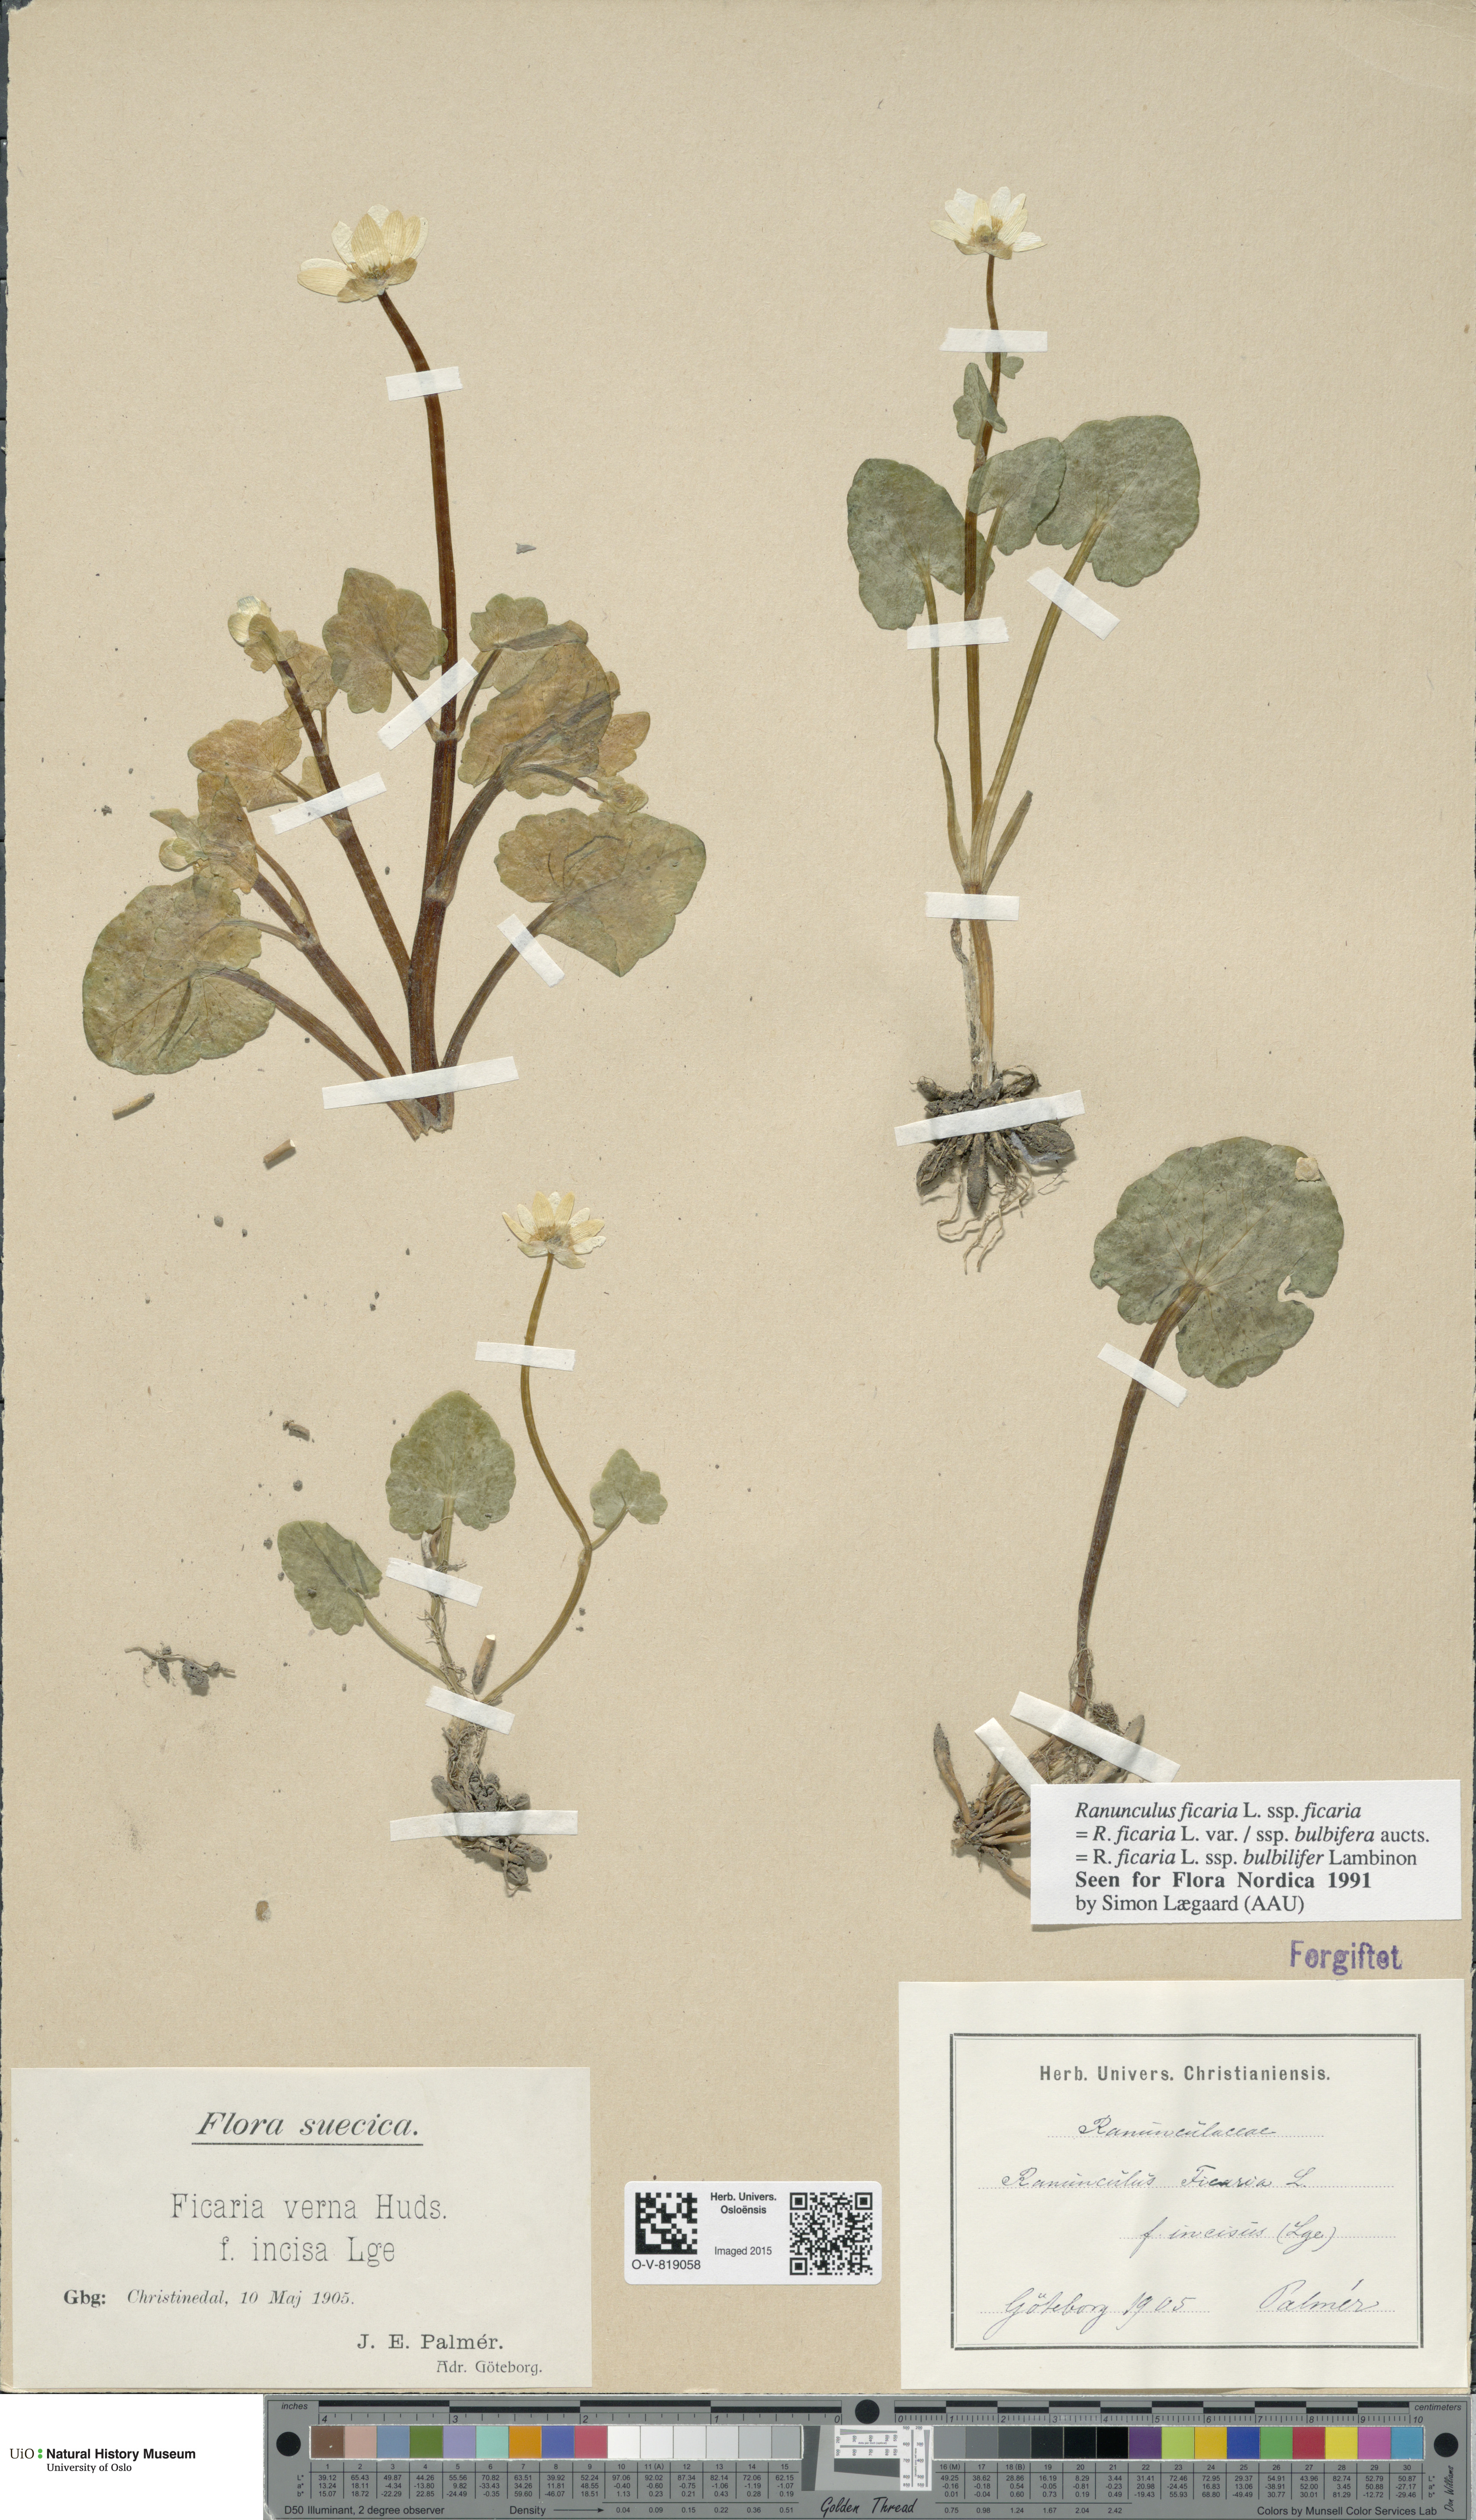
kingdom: Plantae
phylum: Tracheophyta
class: Magnoliopsida
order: Ranunculales
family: Ranunculaceae
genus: Ficaria
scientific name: Ficaria verna
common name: Lesser celandine
